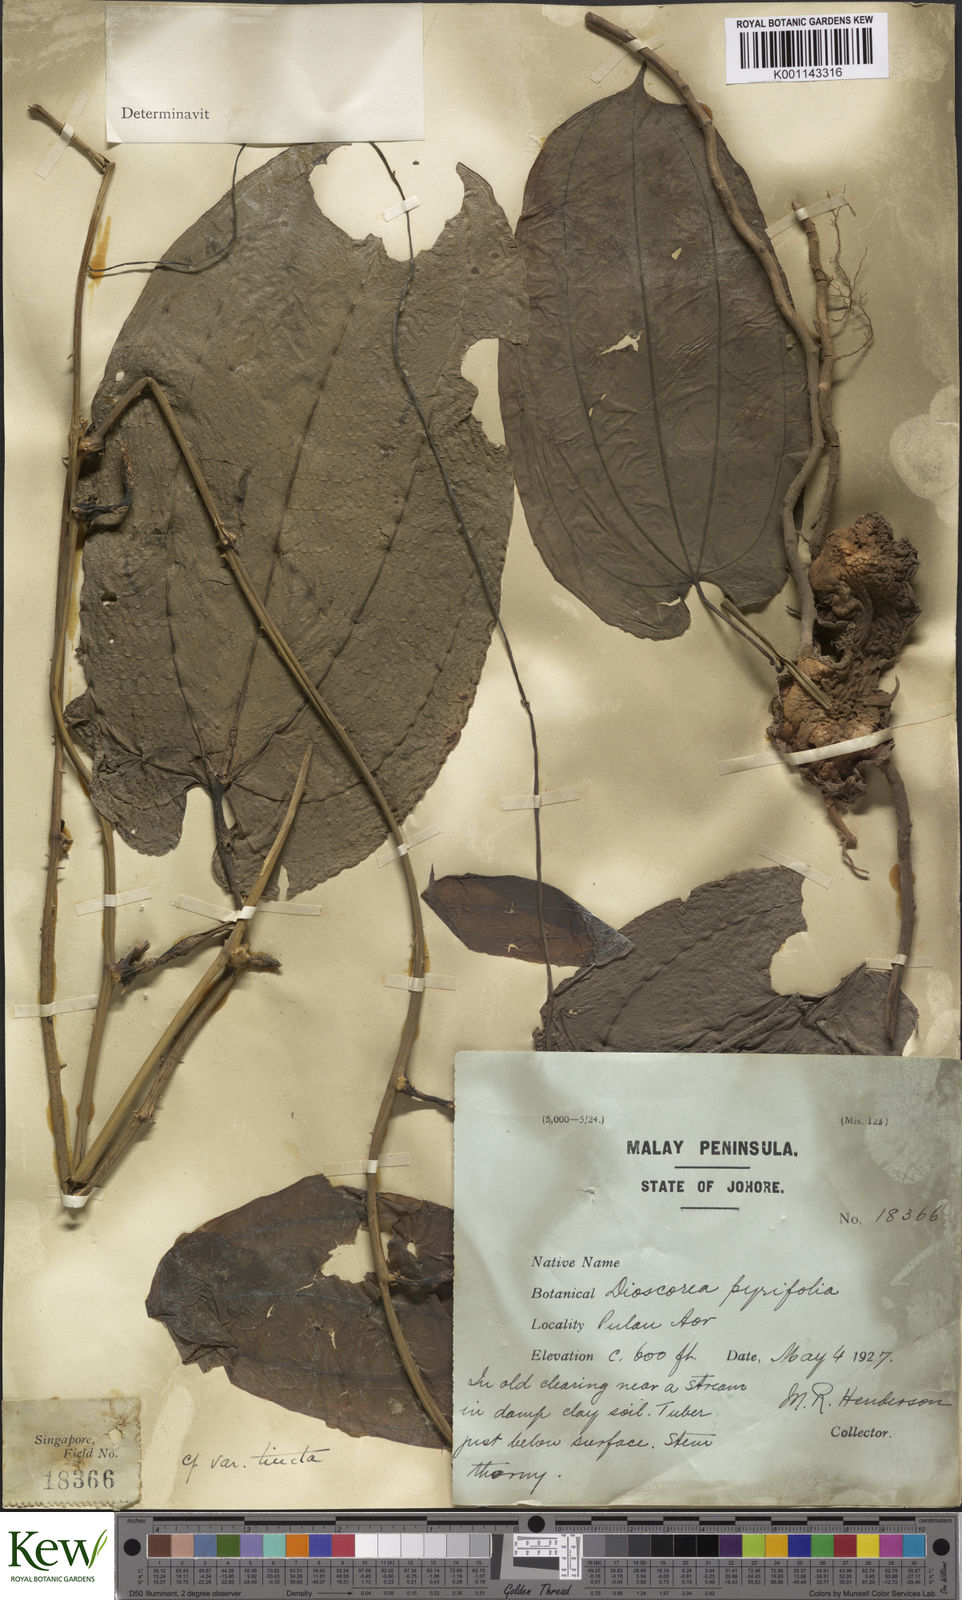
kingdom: Plantae
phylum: Tracheophyta
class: Liliopsida
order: Dioscoreales
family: Dioscoreaceae
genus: Dioscorea
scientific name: Dioscorea glabra
